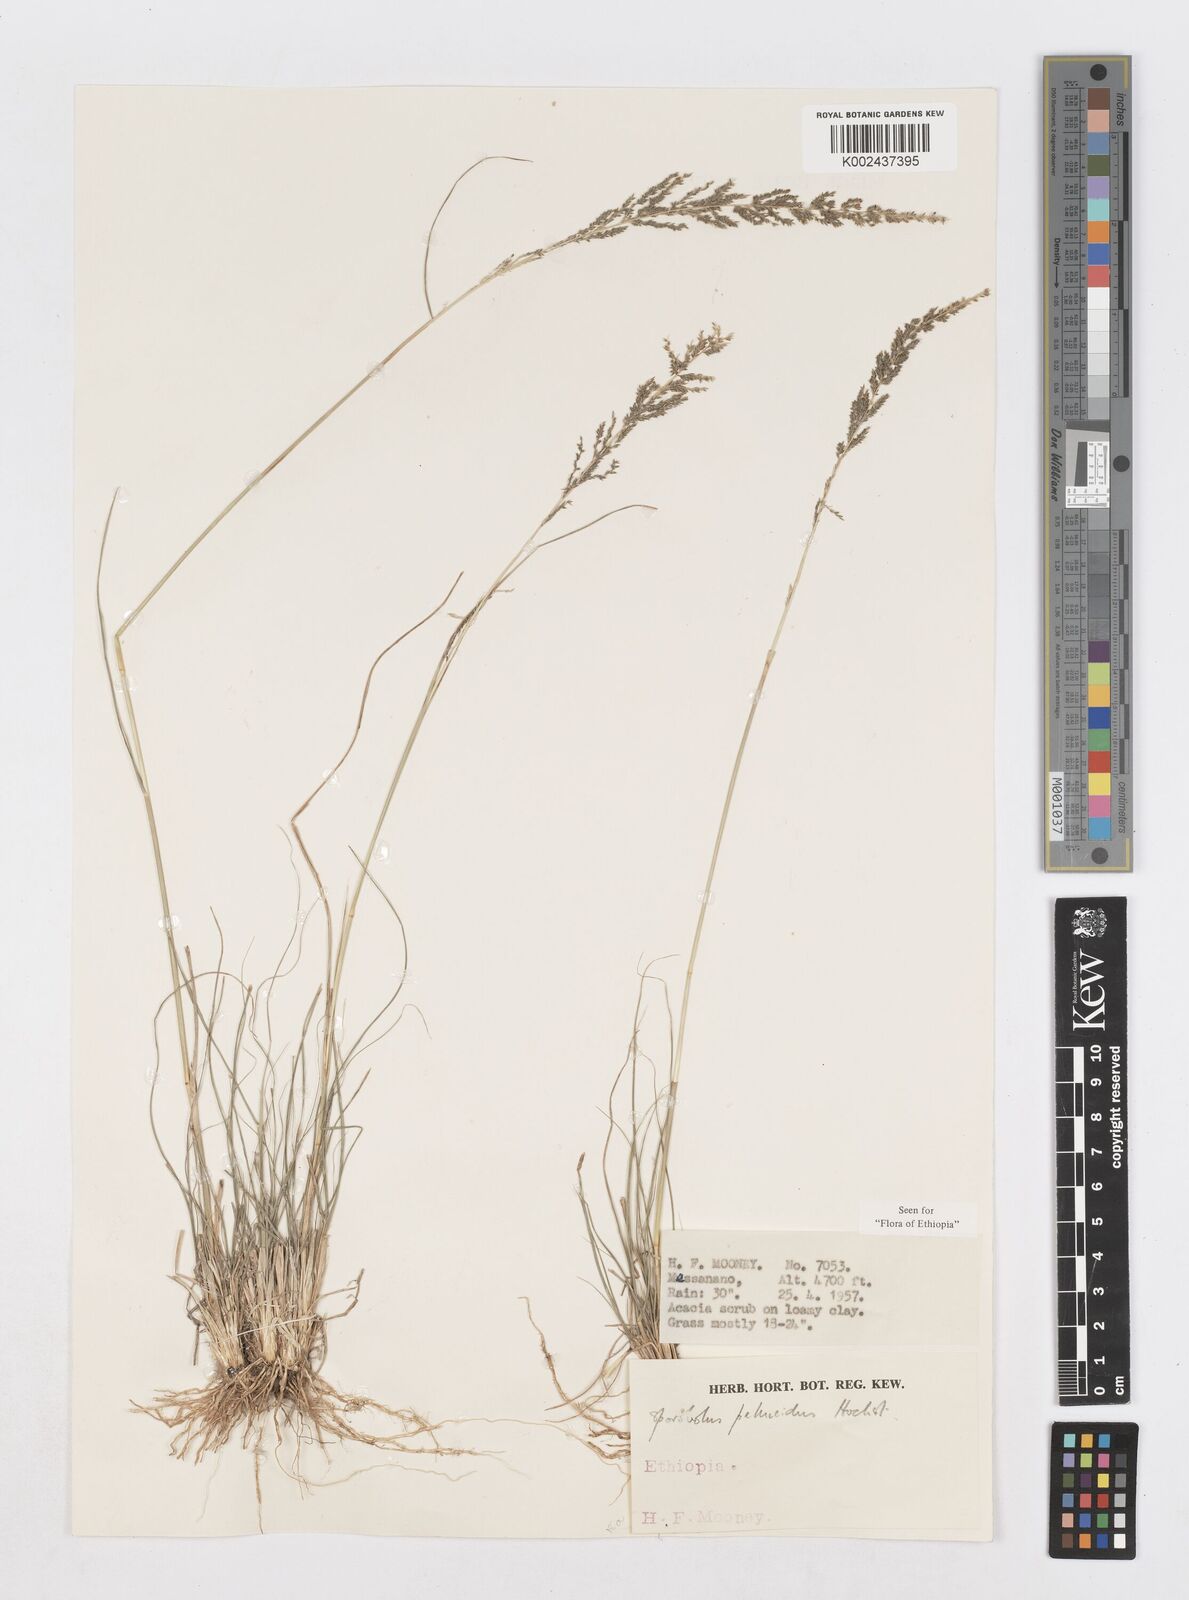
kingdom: Plantae
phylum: Tracheophyta
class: Liliopsida
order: Poales
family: Poaceae
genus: Sporobolus
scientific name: Sporobolus pellucidus
